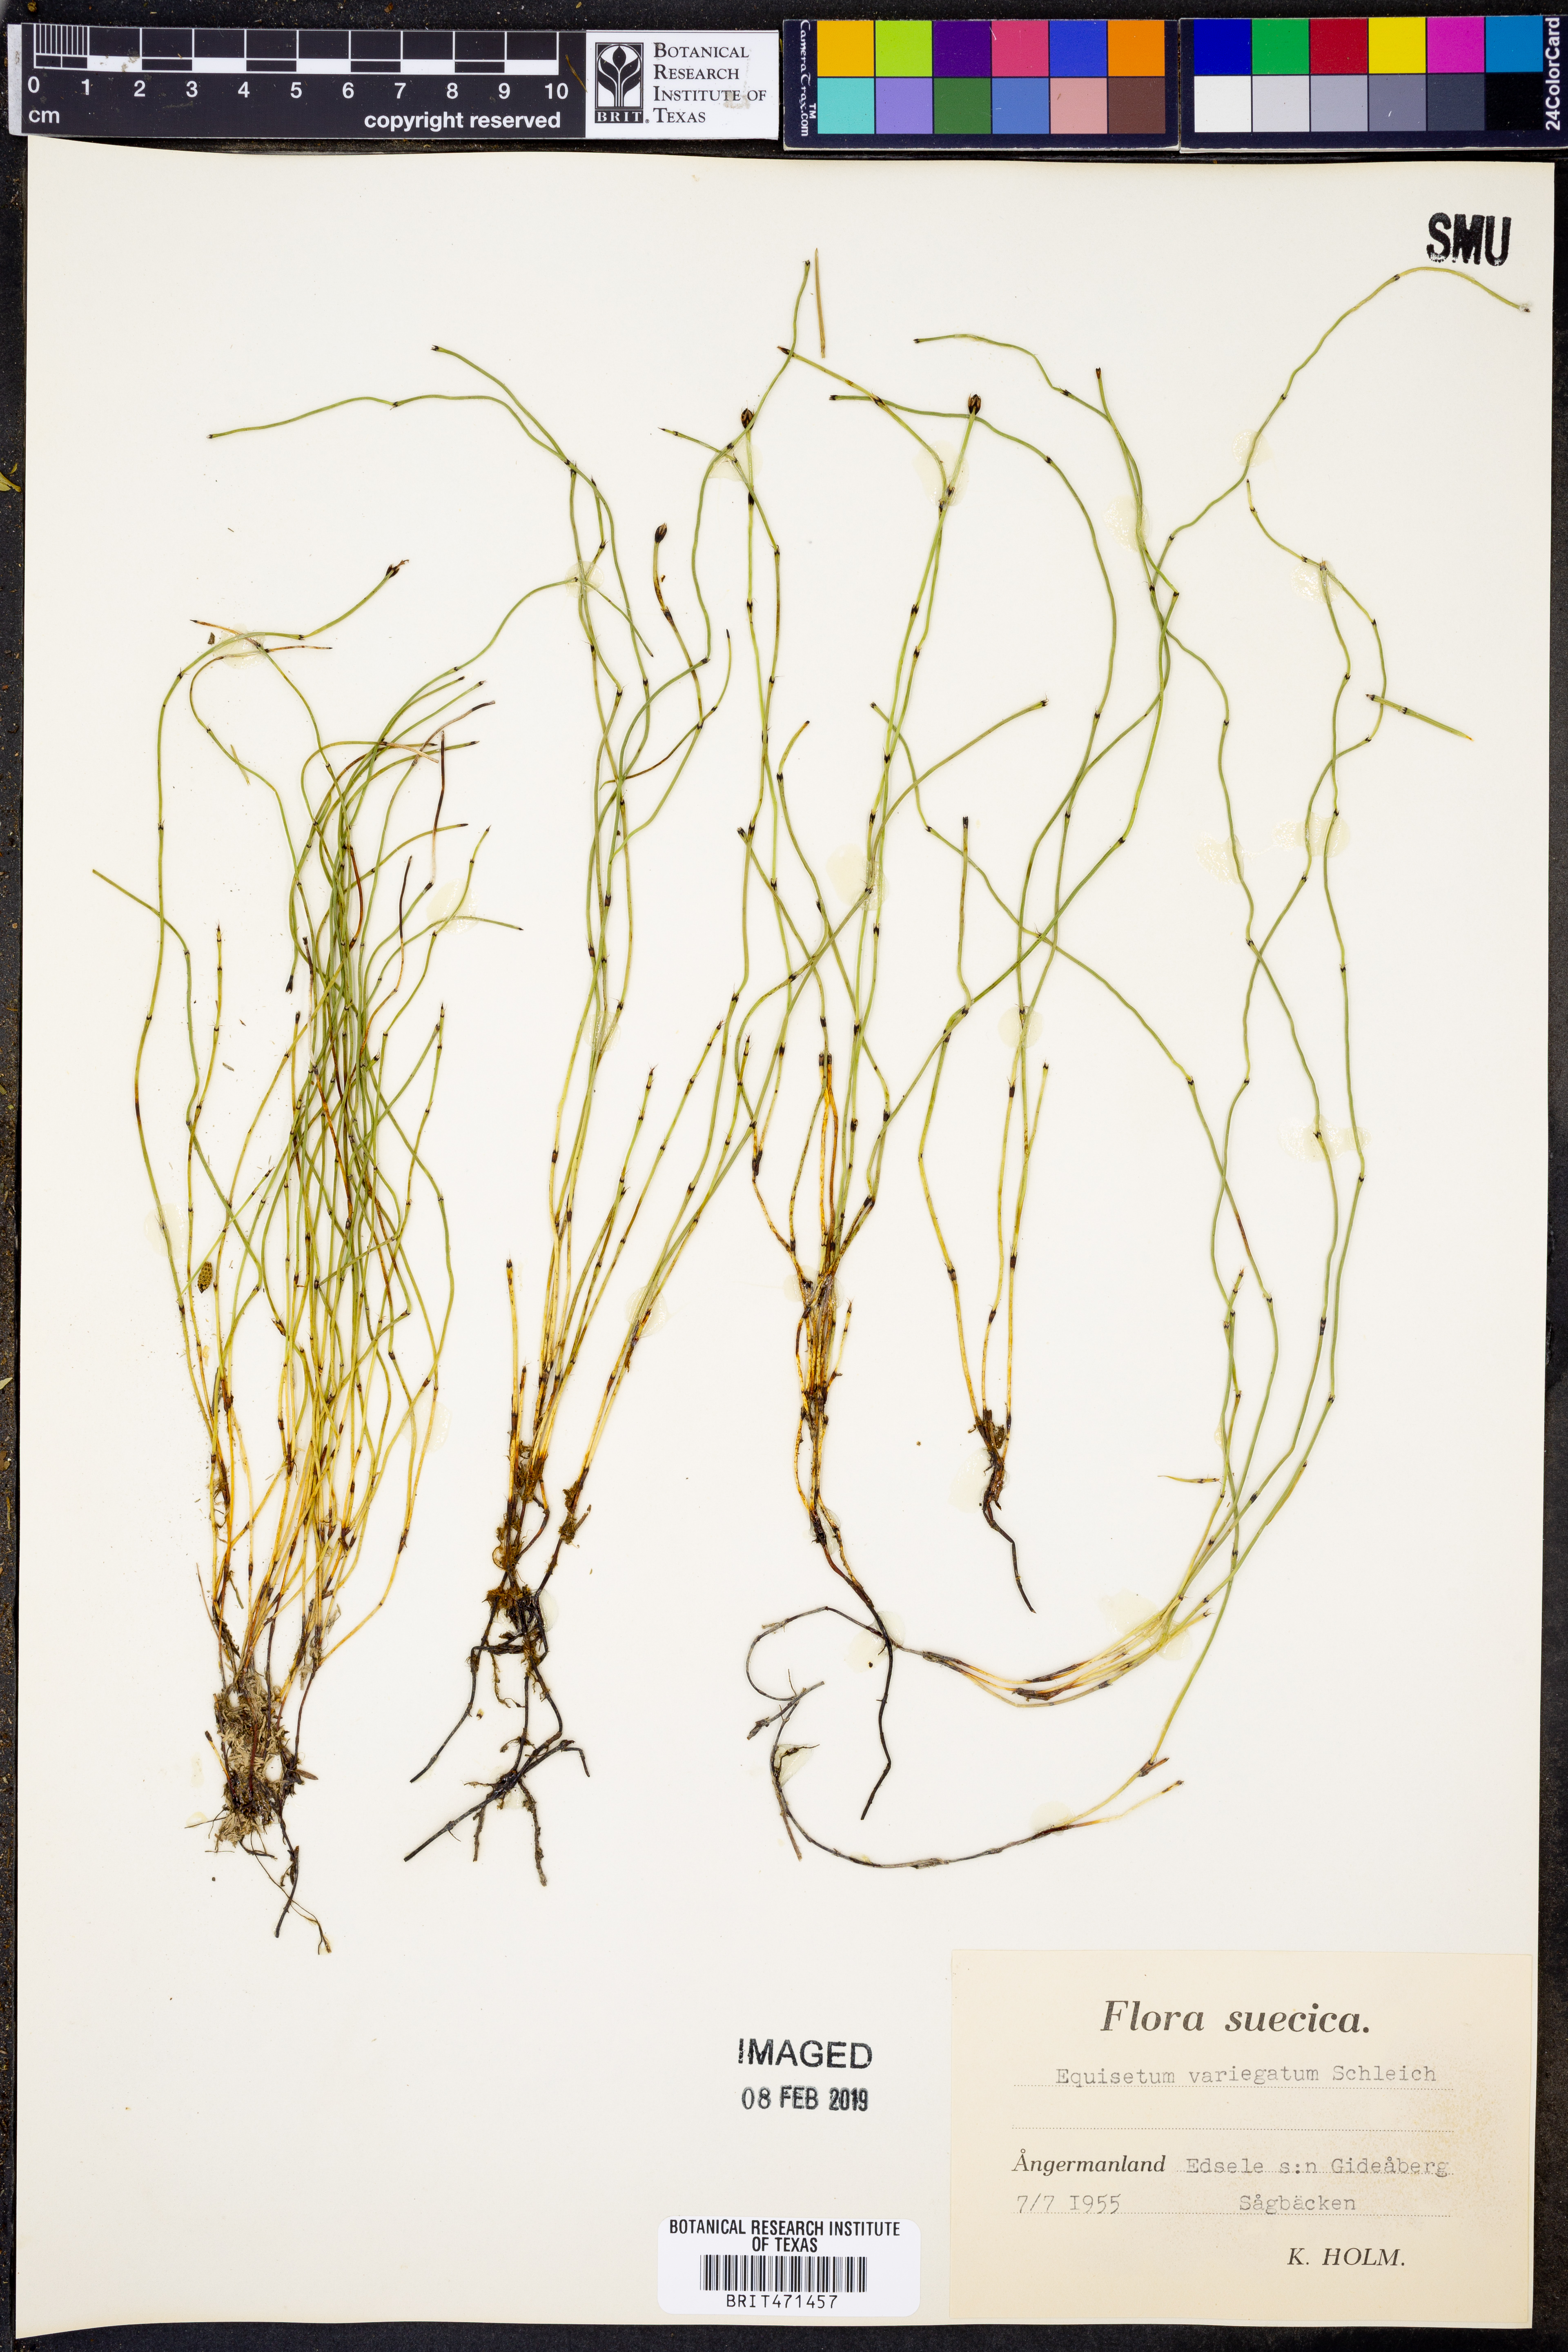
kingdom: Plantae
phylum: Tracheophyta
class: Polypodiopsida
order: Equisetales
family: Equisetaceae
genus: Equisetum
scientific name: Equisetum variegatum
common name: Variegated horsetail
